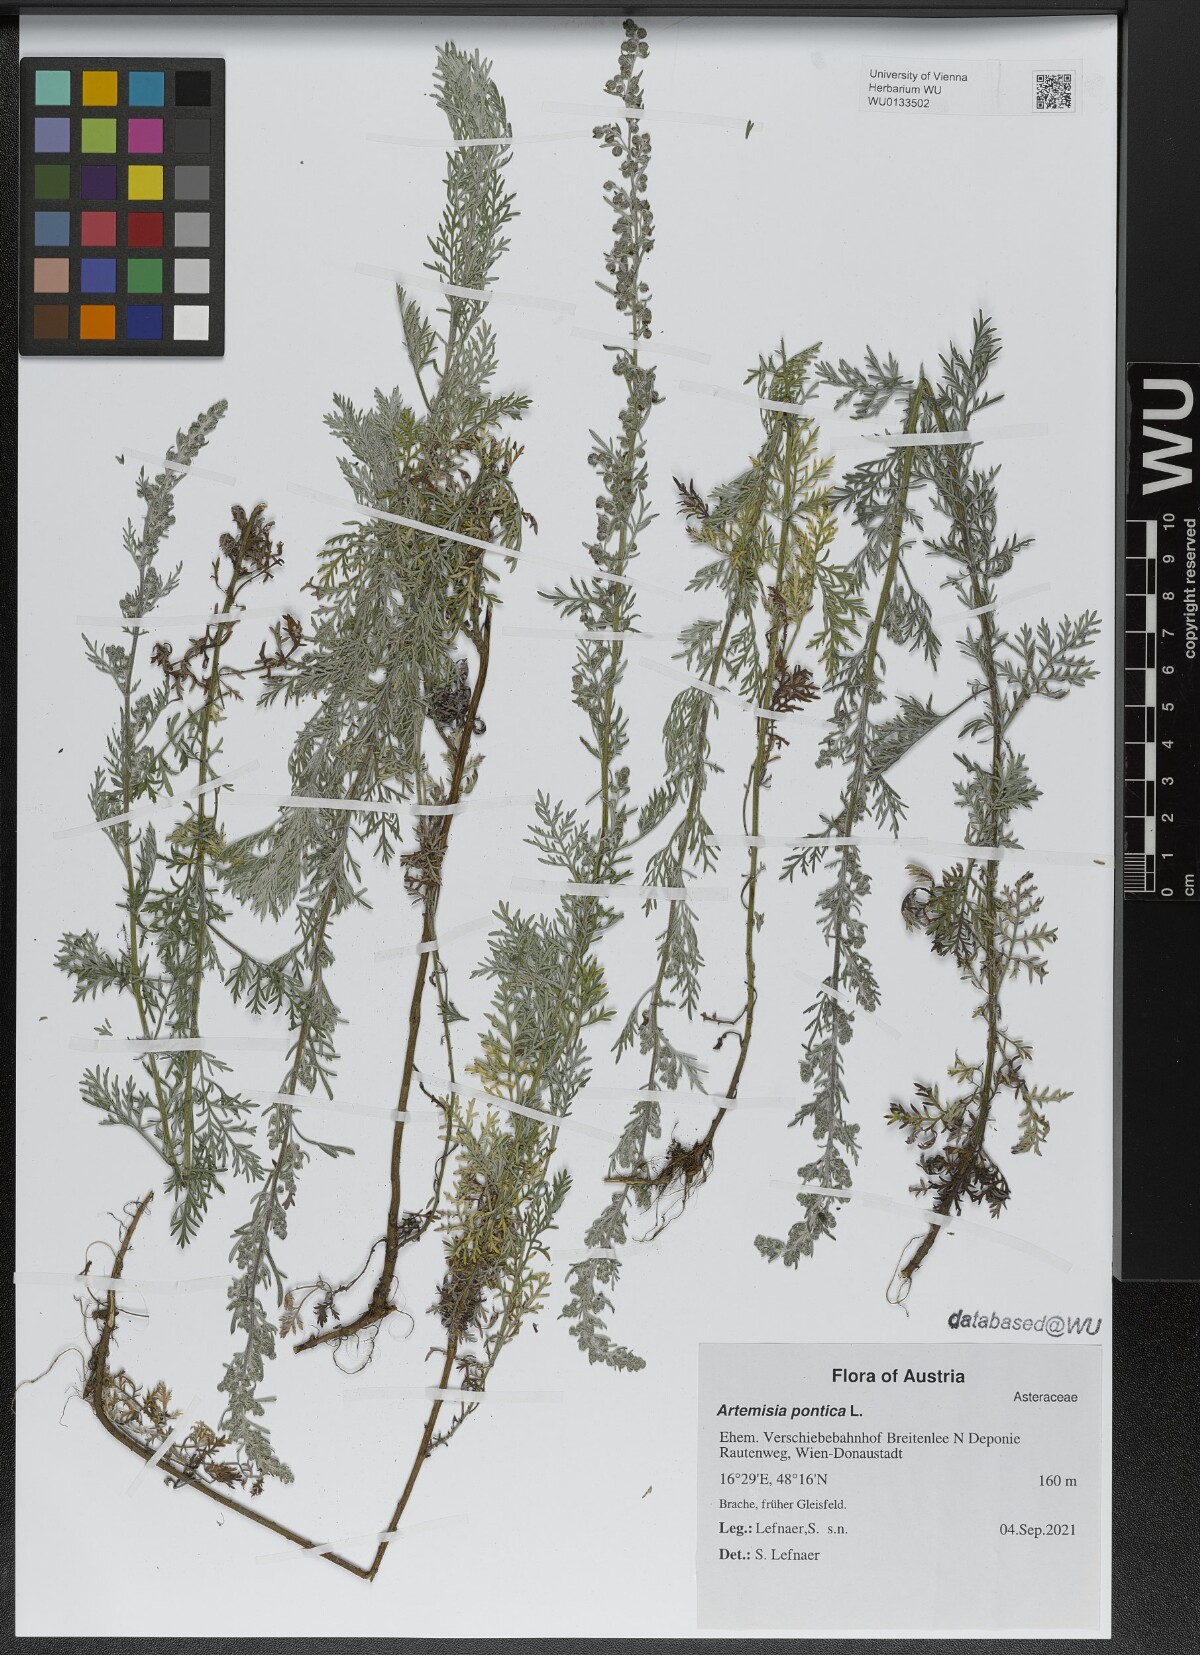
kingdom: Plantae
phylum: Tracheophyta
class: Magnoliopsida
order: Asterales
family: Asteraceae
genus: Artemisia
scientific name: Artemisia pontica
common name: Roman wormwood
